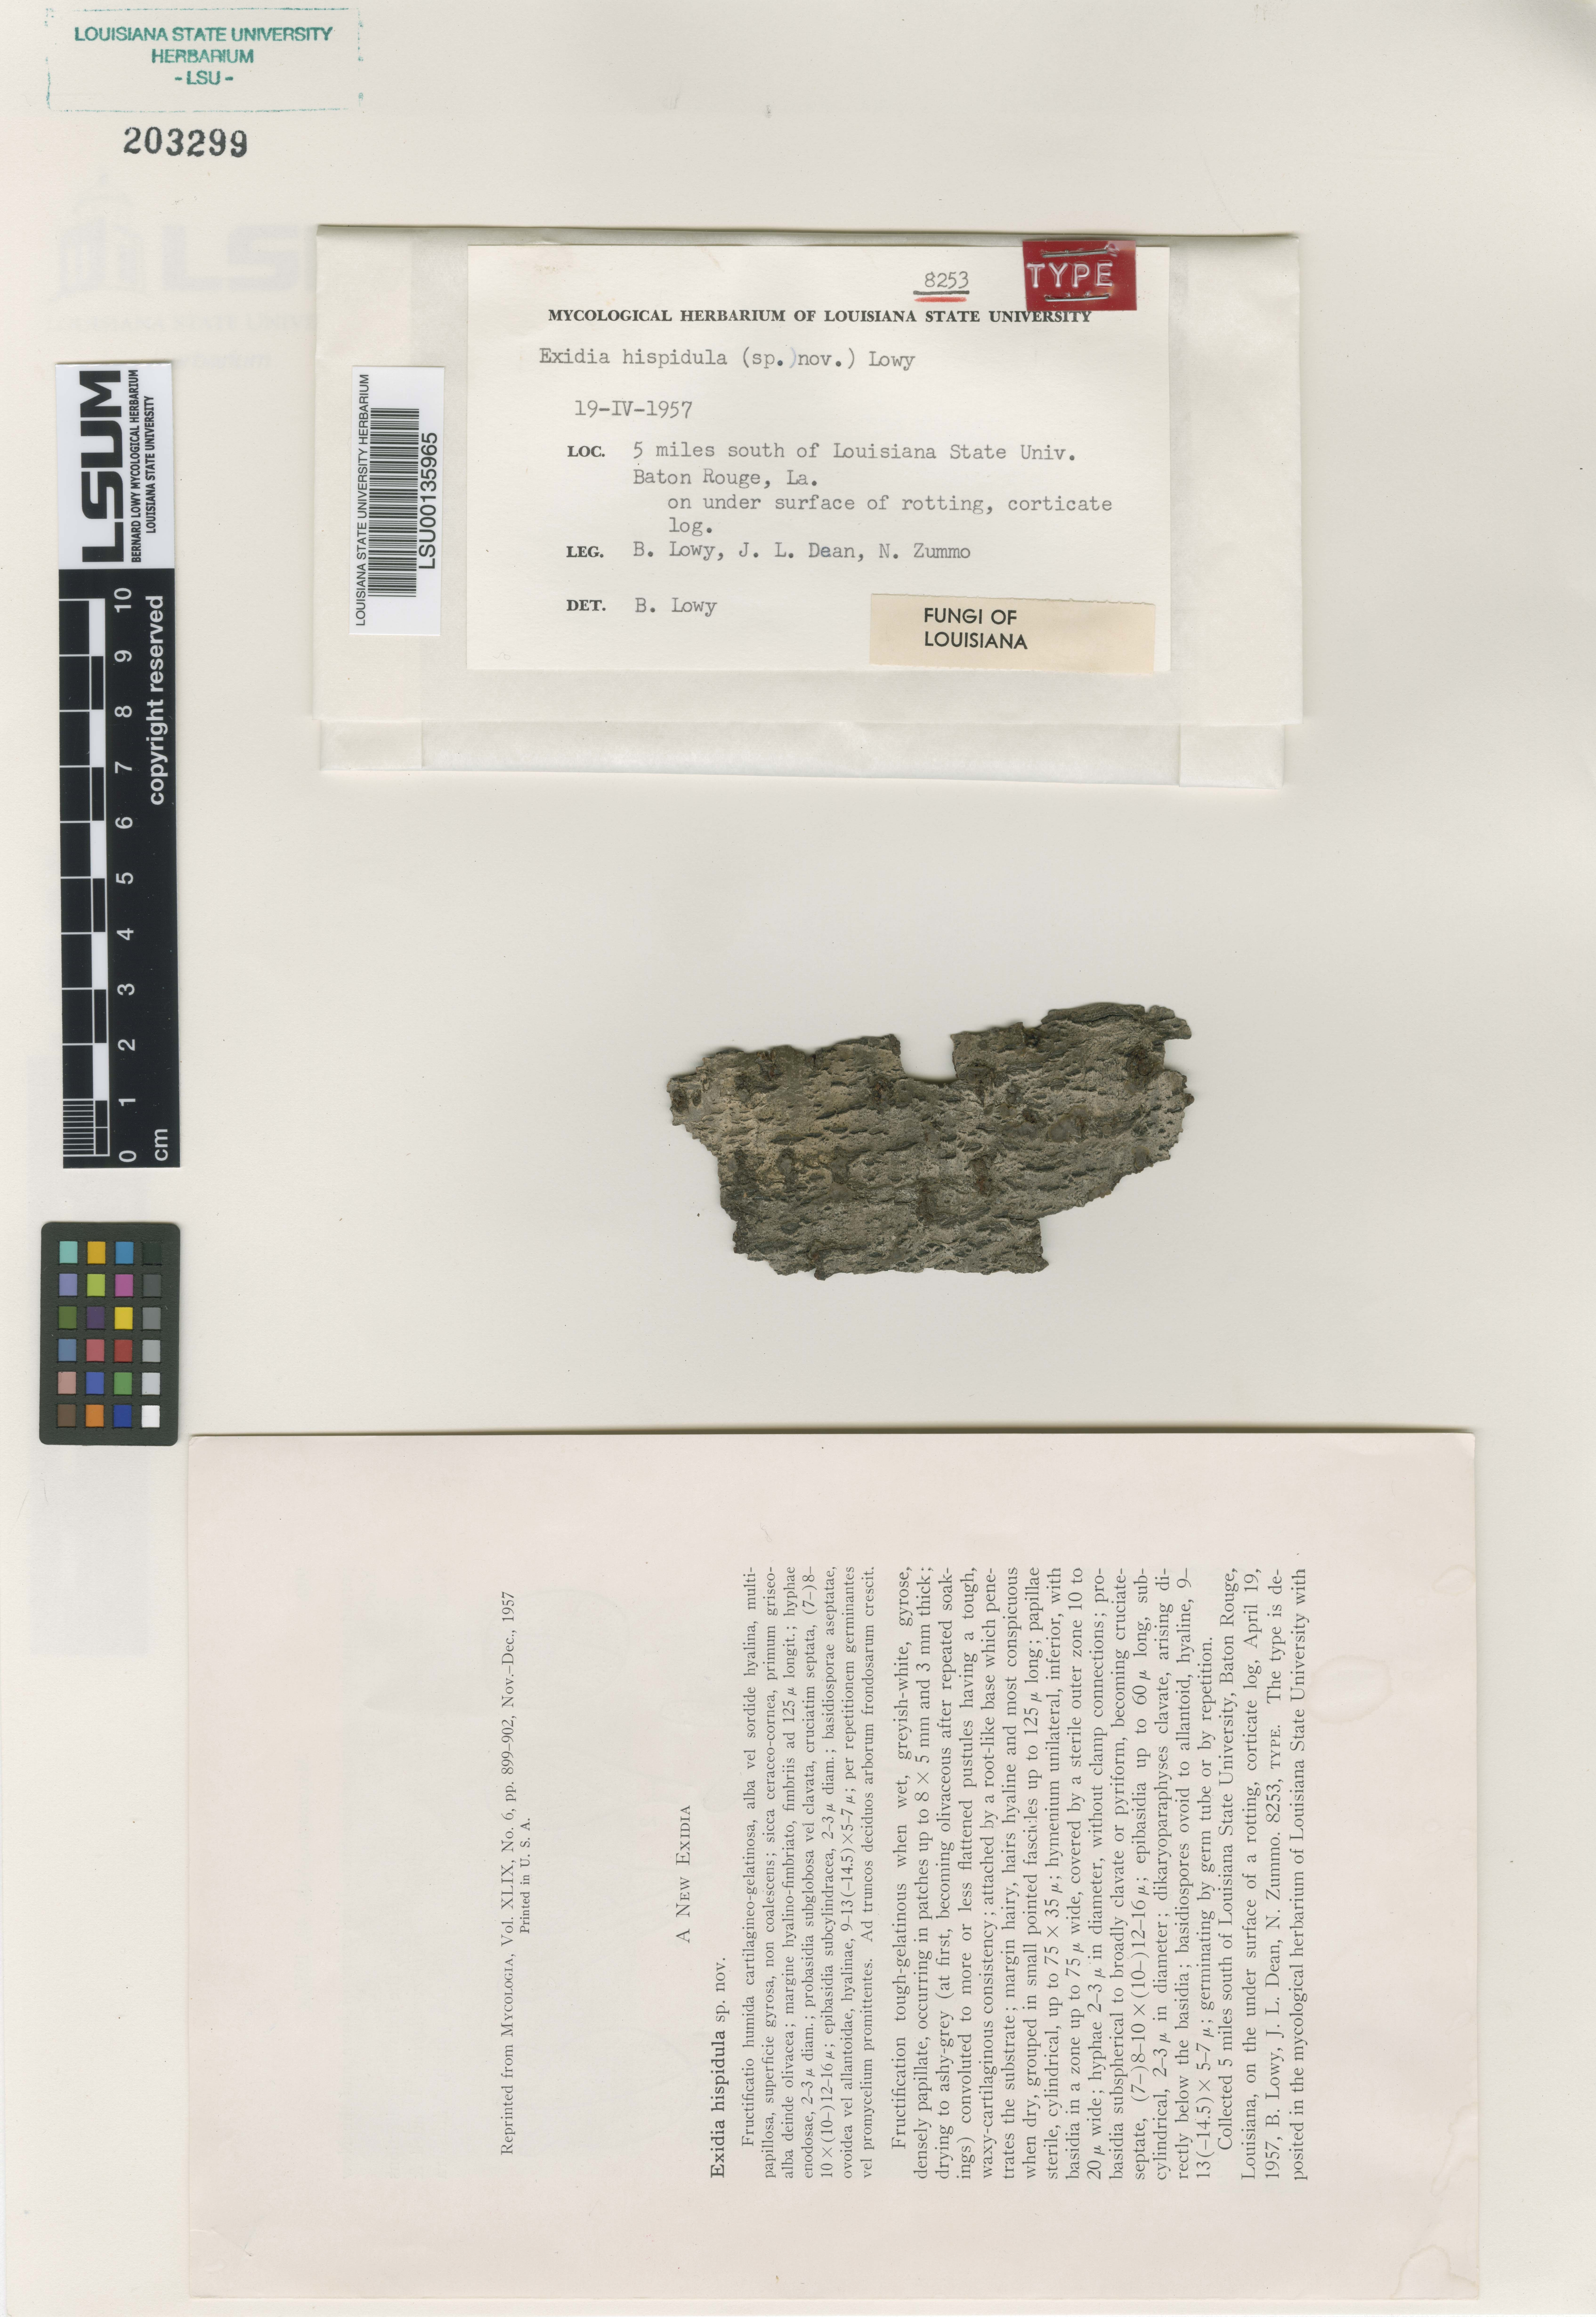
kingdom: Fungi
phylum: Basidiomycota
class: Agaricomycetes
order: Auriculariales
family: Auriculariaceae
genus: Auricularia
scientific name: Auricularia hispidula
